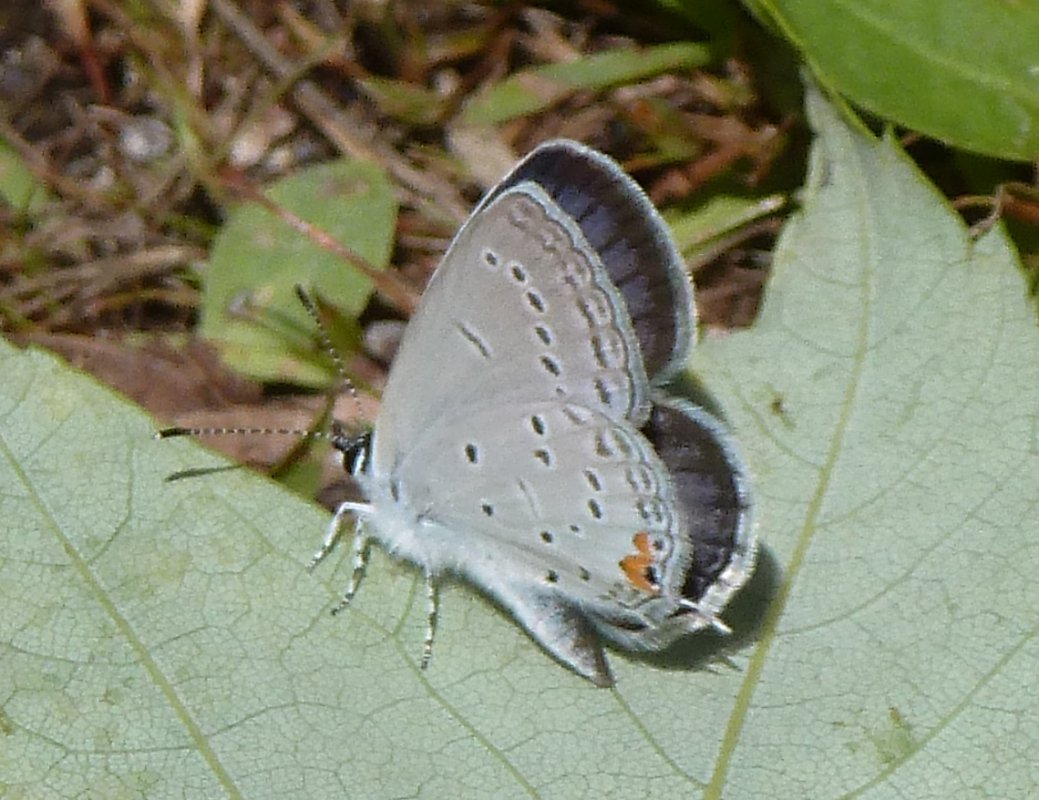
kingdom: Animalia
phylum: Arthropoda
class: Insecta
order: Lepidoptera
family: Lycaenidae
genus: Elkalyce
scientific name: Elkalyce comyntas
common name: Eastern Tailed-Blue
